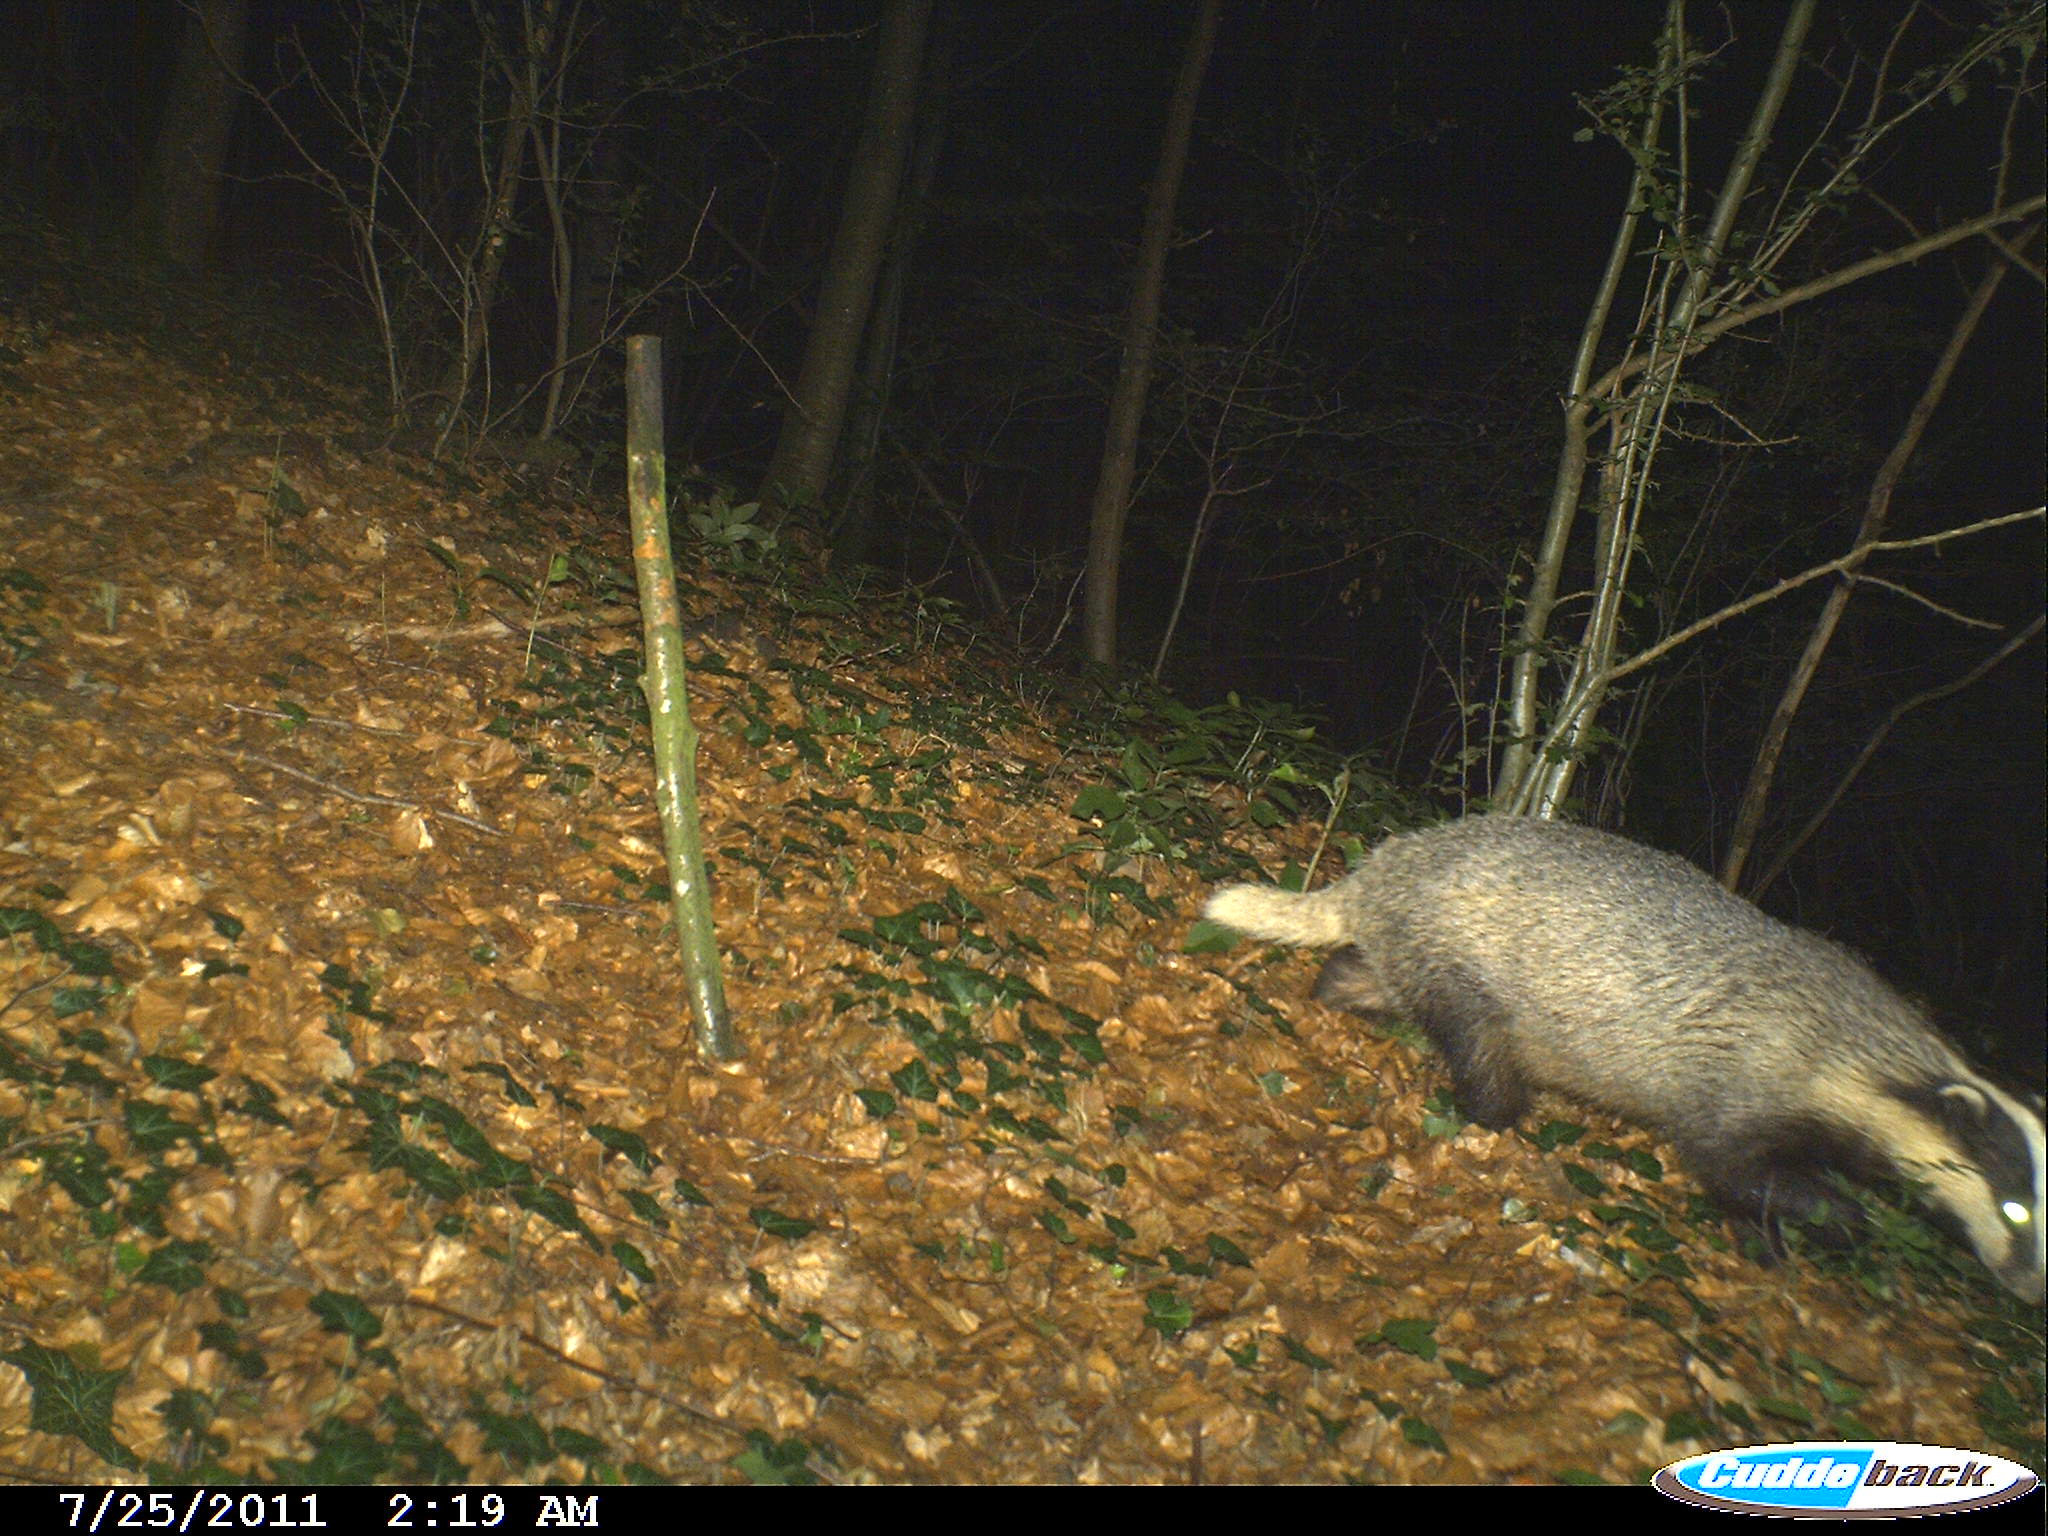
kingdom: Animalia
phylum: Chordata
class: Mammalia
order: Carnivora
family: Mustelidae
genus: Meles
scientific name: Meles meles
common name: Eurasian badger
